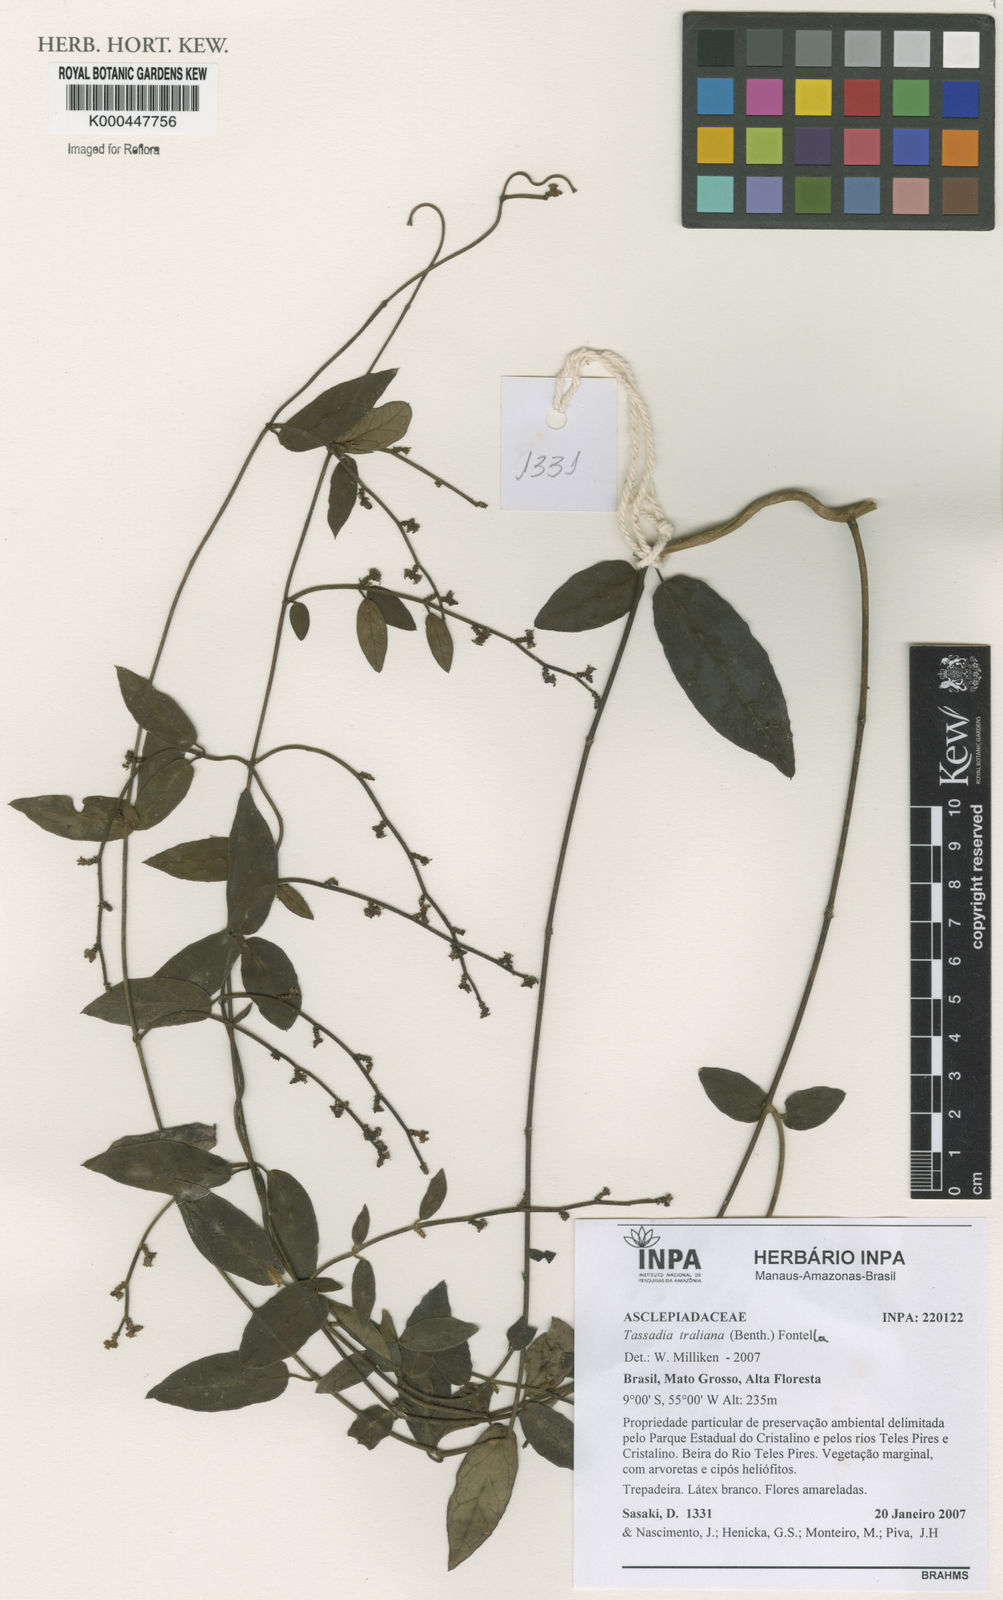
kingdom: Plantae
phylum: Tracheophyta
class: Magnoliopsida
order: Gentianales
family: Apocynaceae
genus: Tassadia
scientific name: Tassadia
